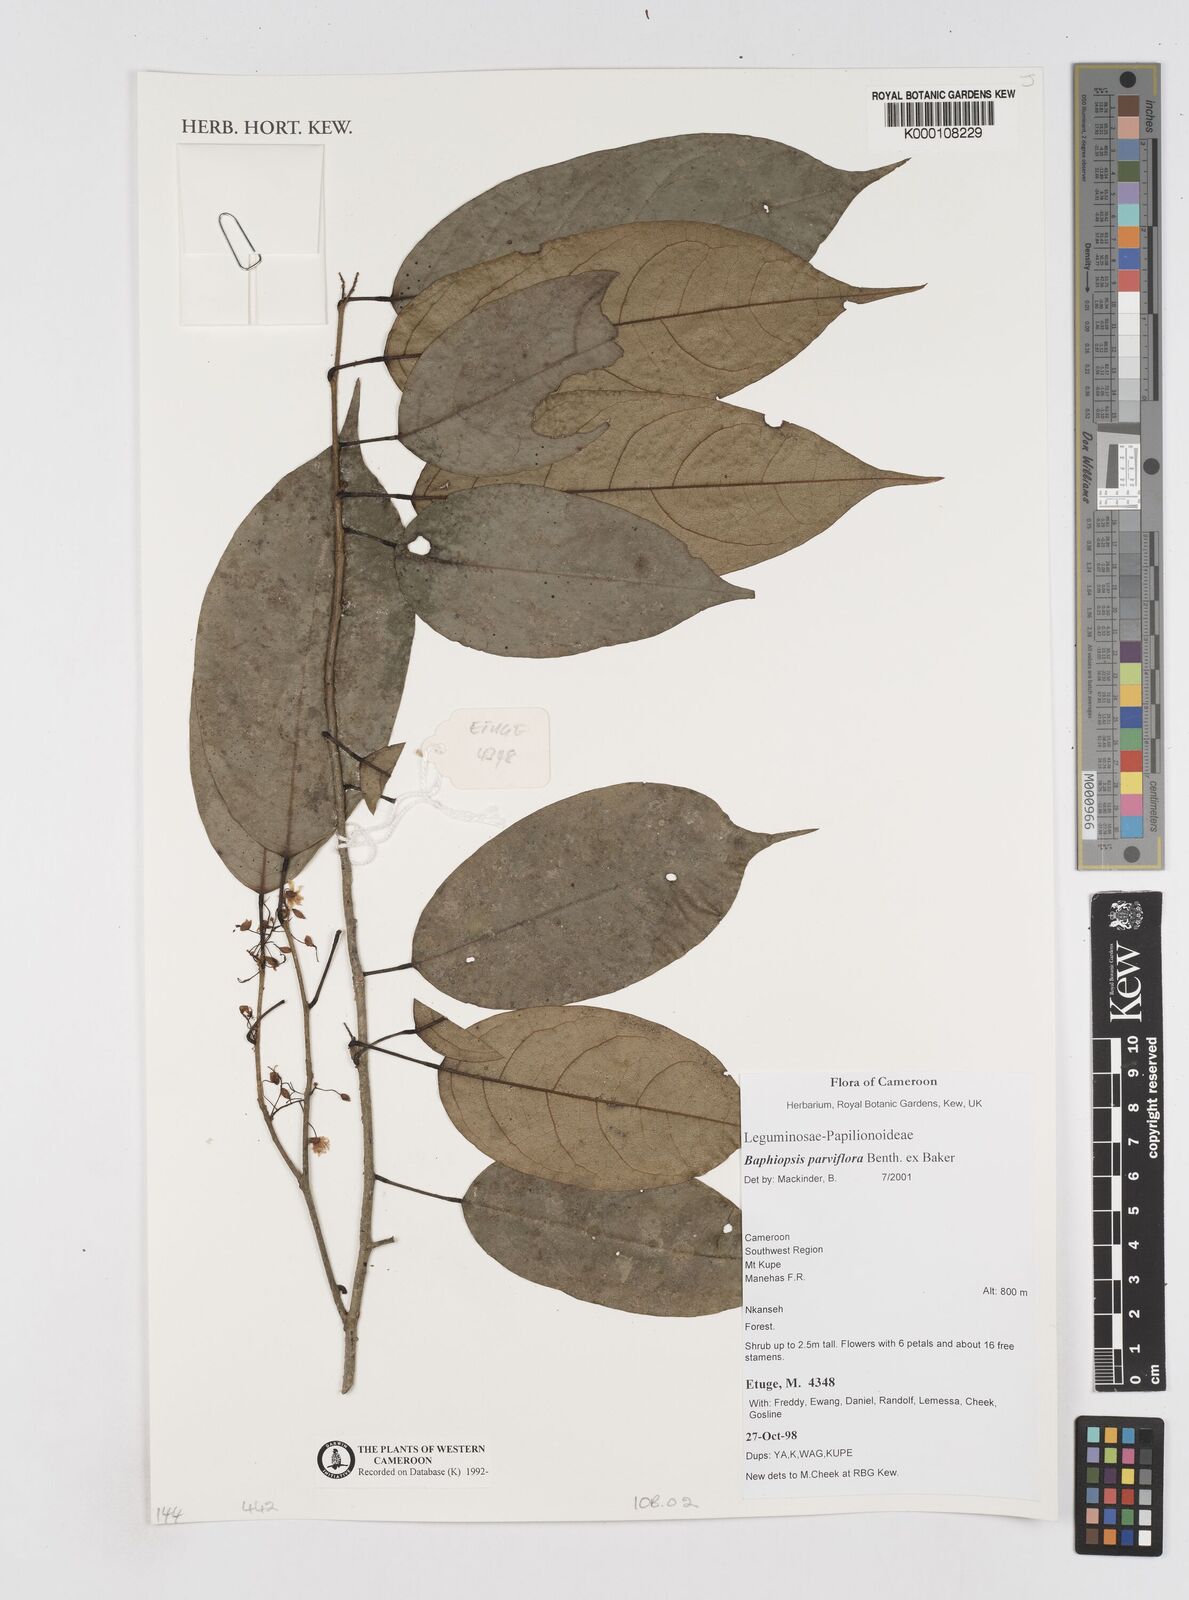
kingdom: Plantae
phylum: Tracheophyta
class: Magnoliopsida
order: Fabales
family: Fabaceae
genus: Baphiopsis
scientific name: Baphiopsis parviflora
